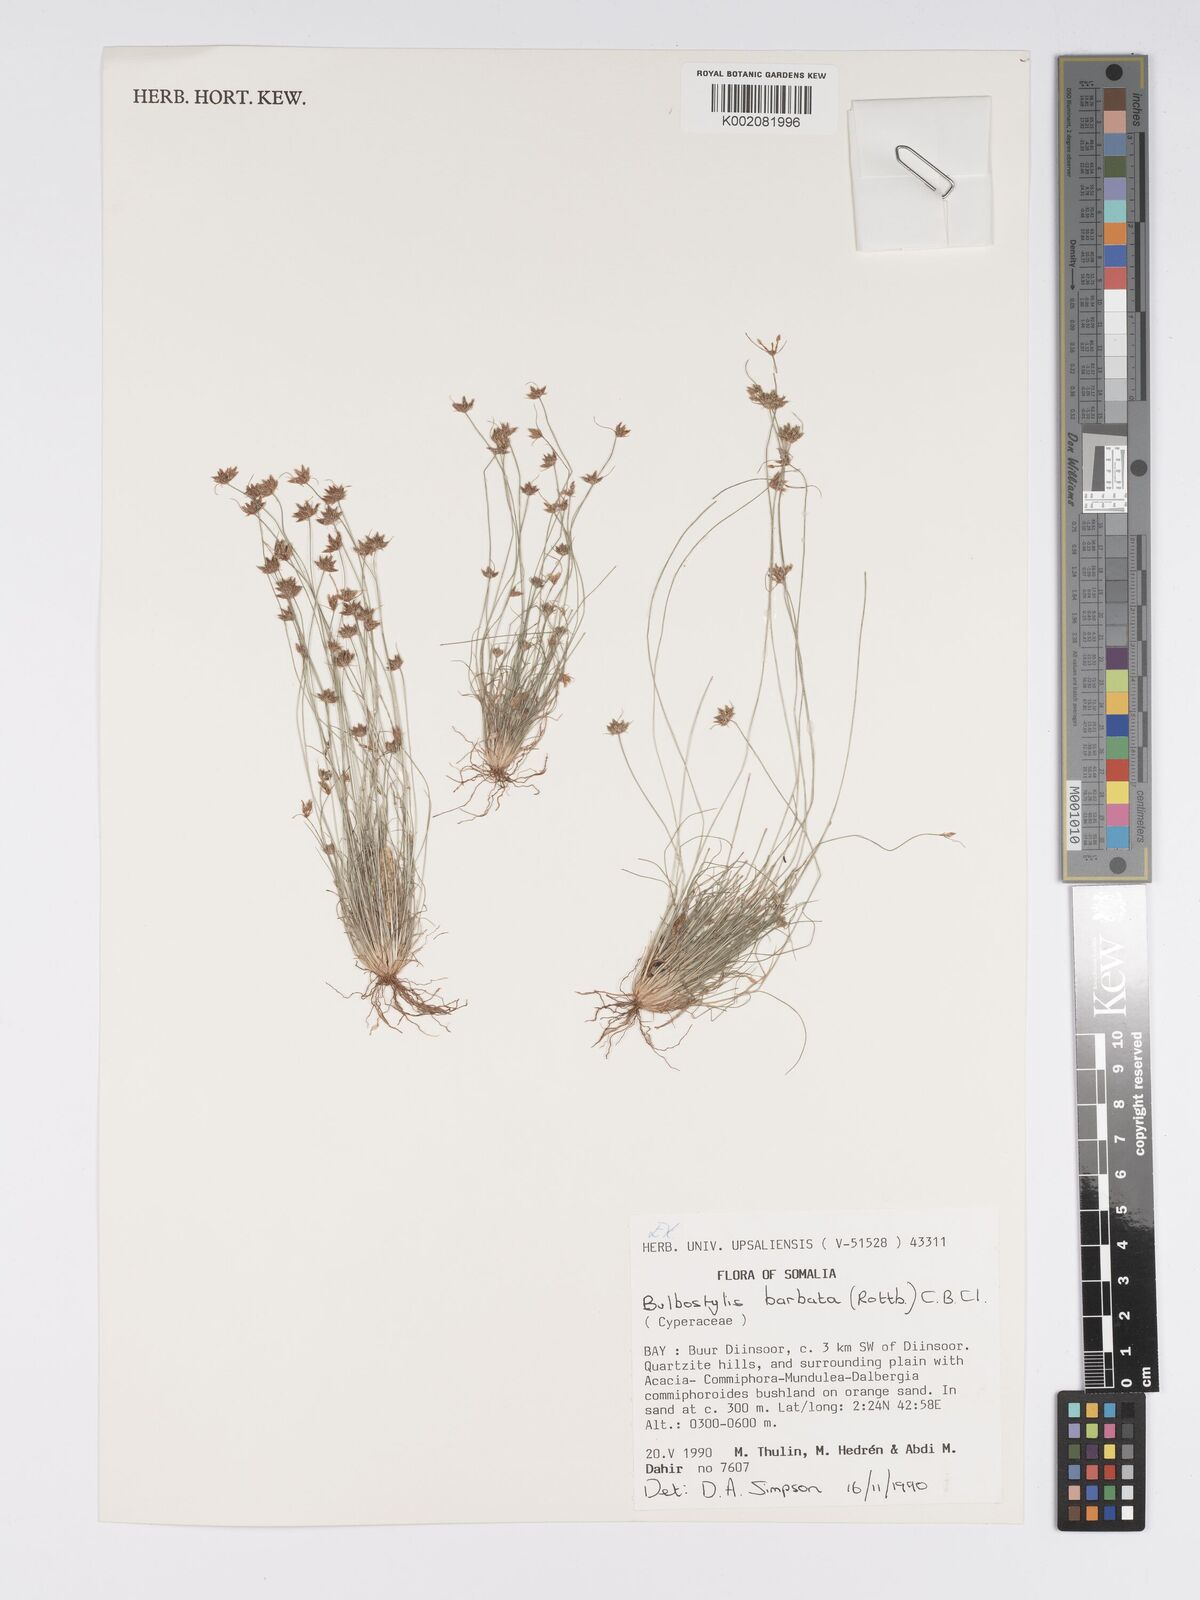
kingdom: Plantae
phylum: Tracheophyta
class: Liliopsida
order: Poales
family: Cyperaceae
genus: Bulbostylis
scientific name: Bulbostylis barbata
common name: Watergrass
